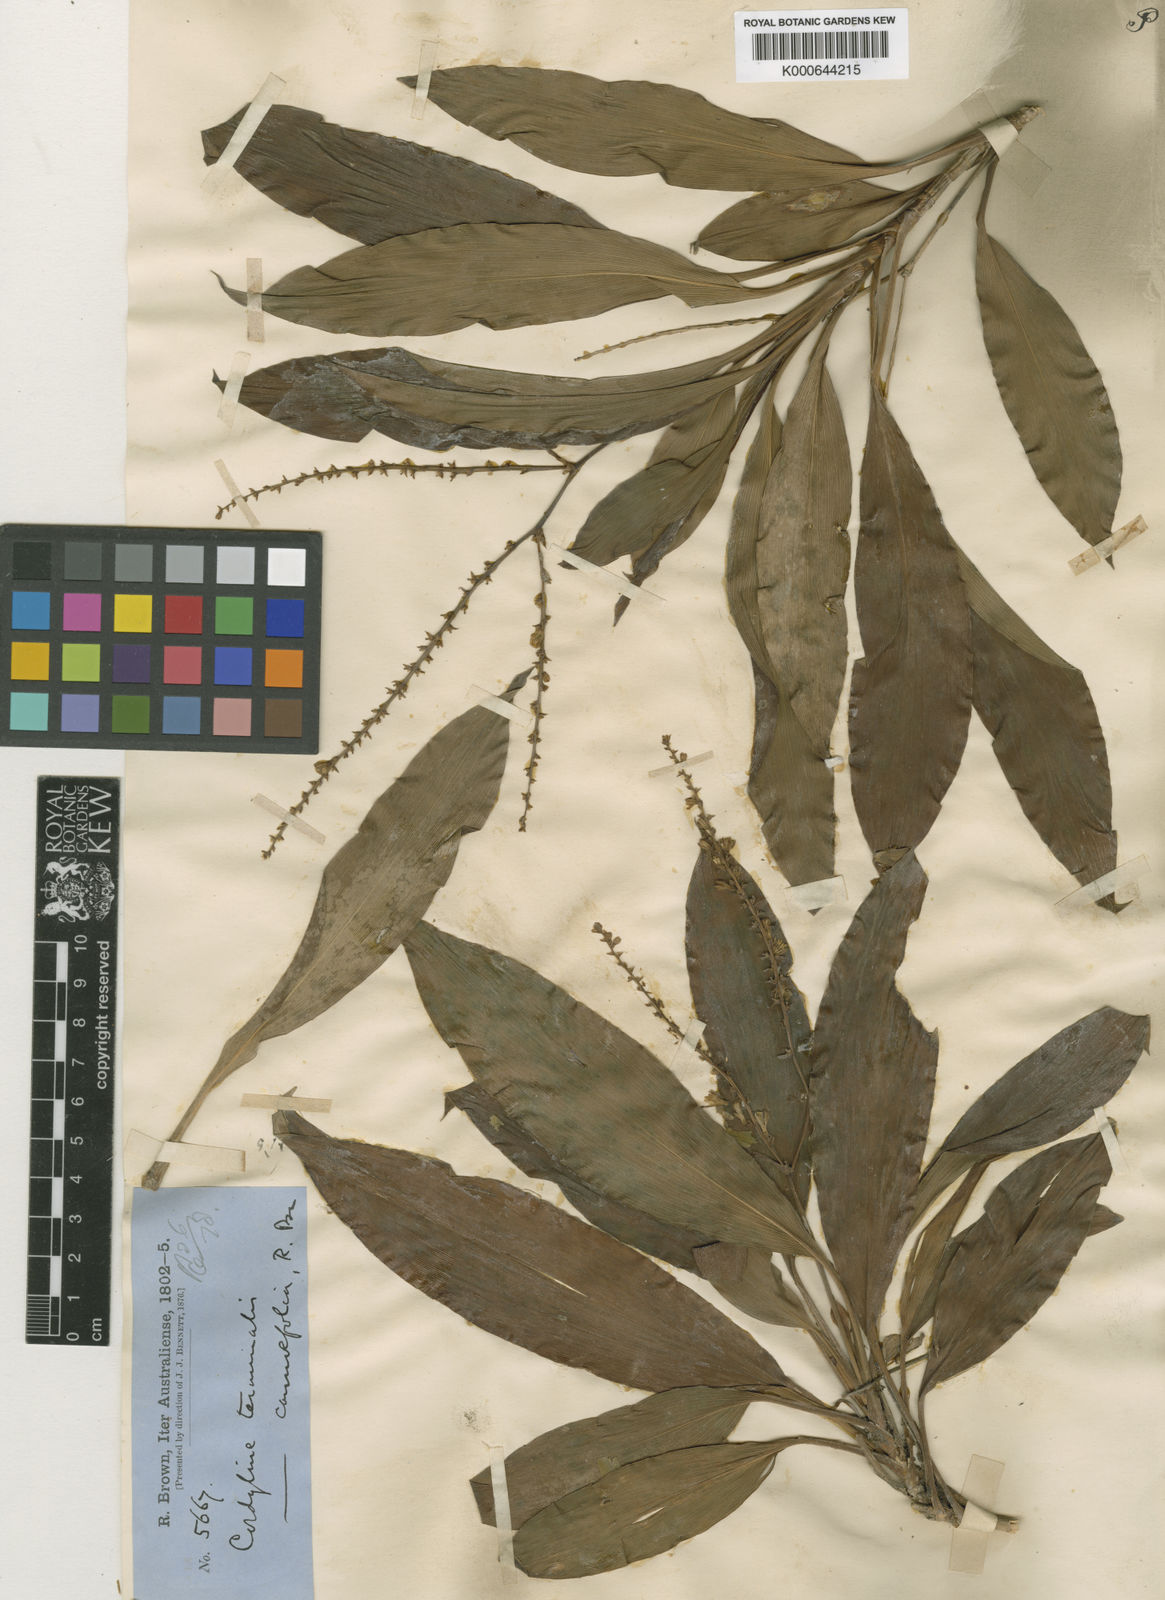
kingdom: Plantae
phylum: Tracheophyta
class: Liliopsida
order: Asparagales
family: Asparagaceae
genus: Cordyline
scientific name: Cordyline fruticosa
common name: Good-luck-plant
